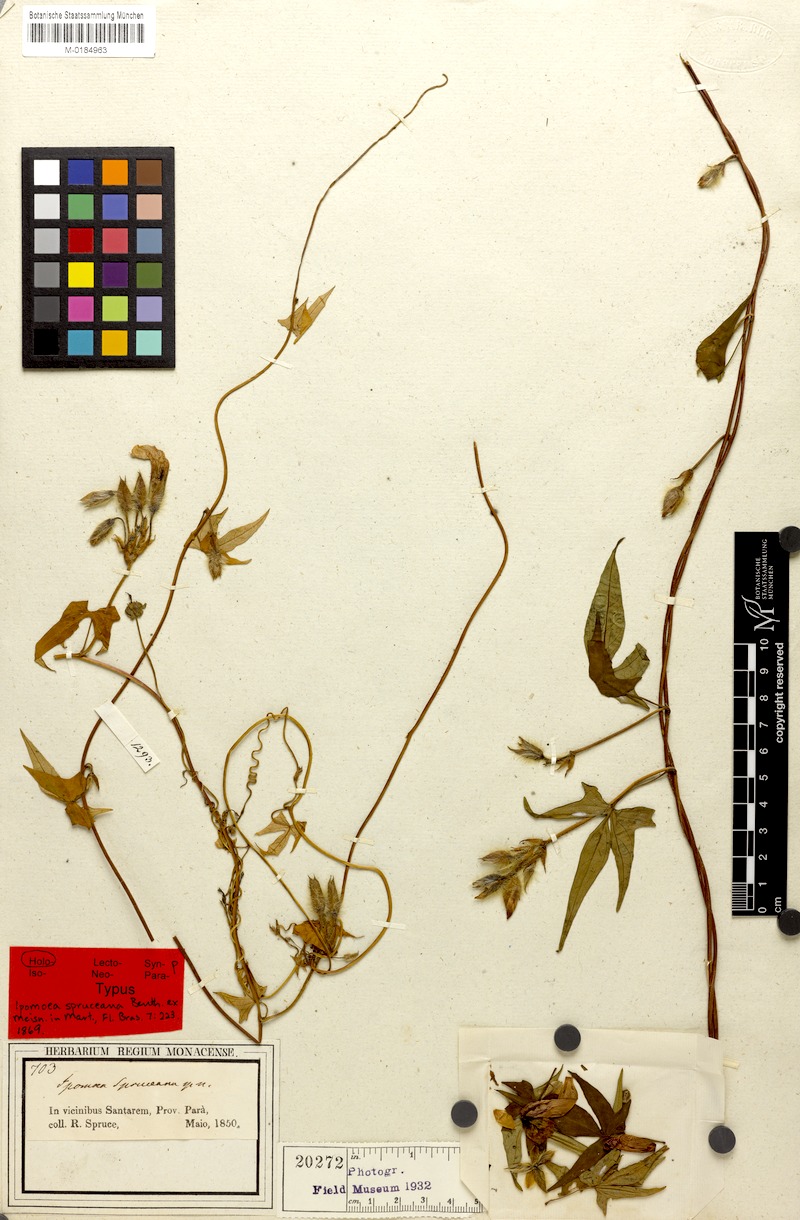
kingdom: Plantae
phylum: Tracheophyta
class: Magnoliopsida
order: Solanales
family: Convolvulaceae
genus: Ipomoea
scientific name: Ipomoea spruceana
